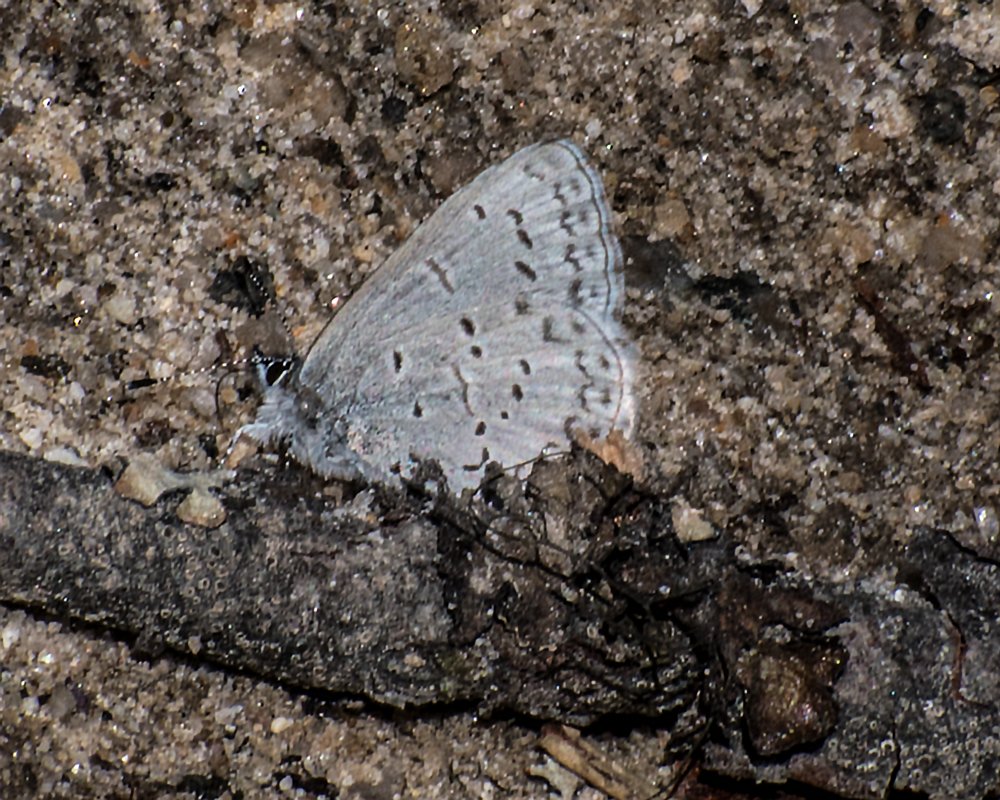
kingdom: Animalia
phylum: Arthropoda
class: Insecta
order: Lepidoptera
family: Lycaenidae
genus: Celastrina
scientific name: Celastrina ladon
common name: Echo Azure
